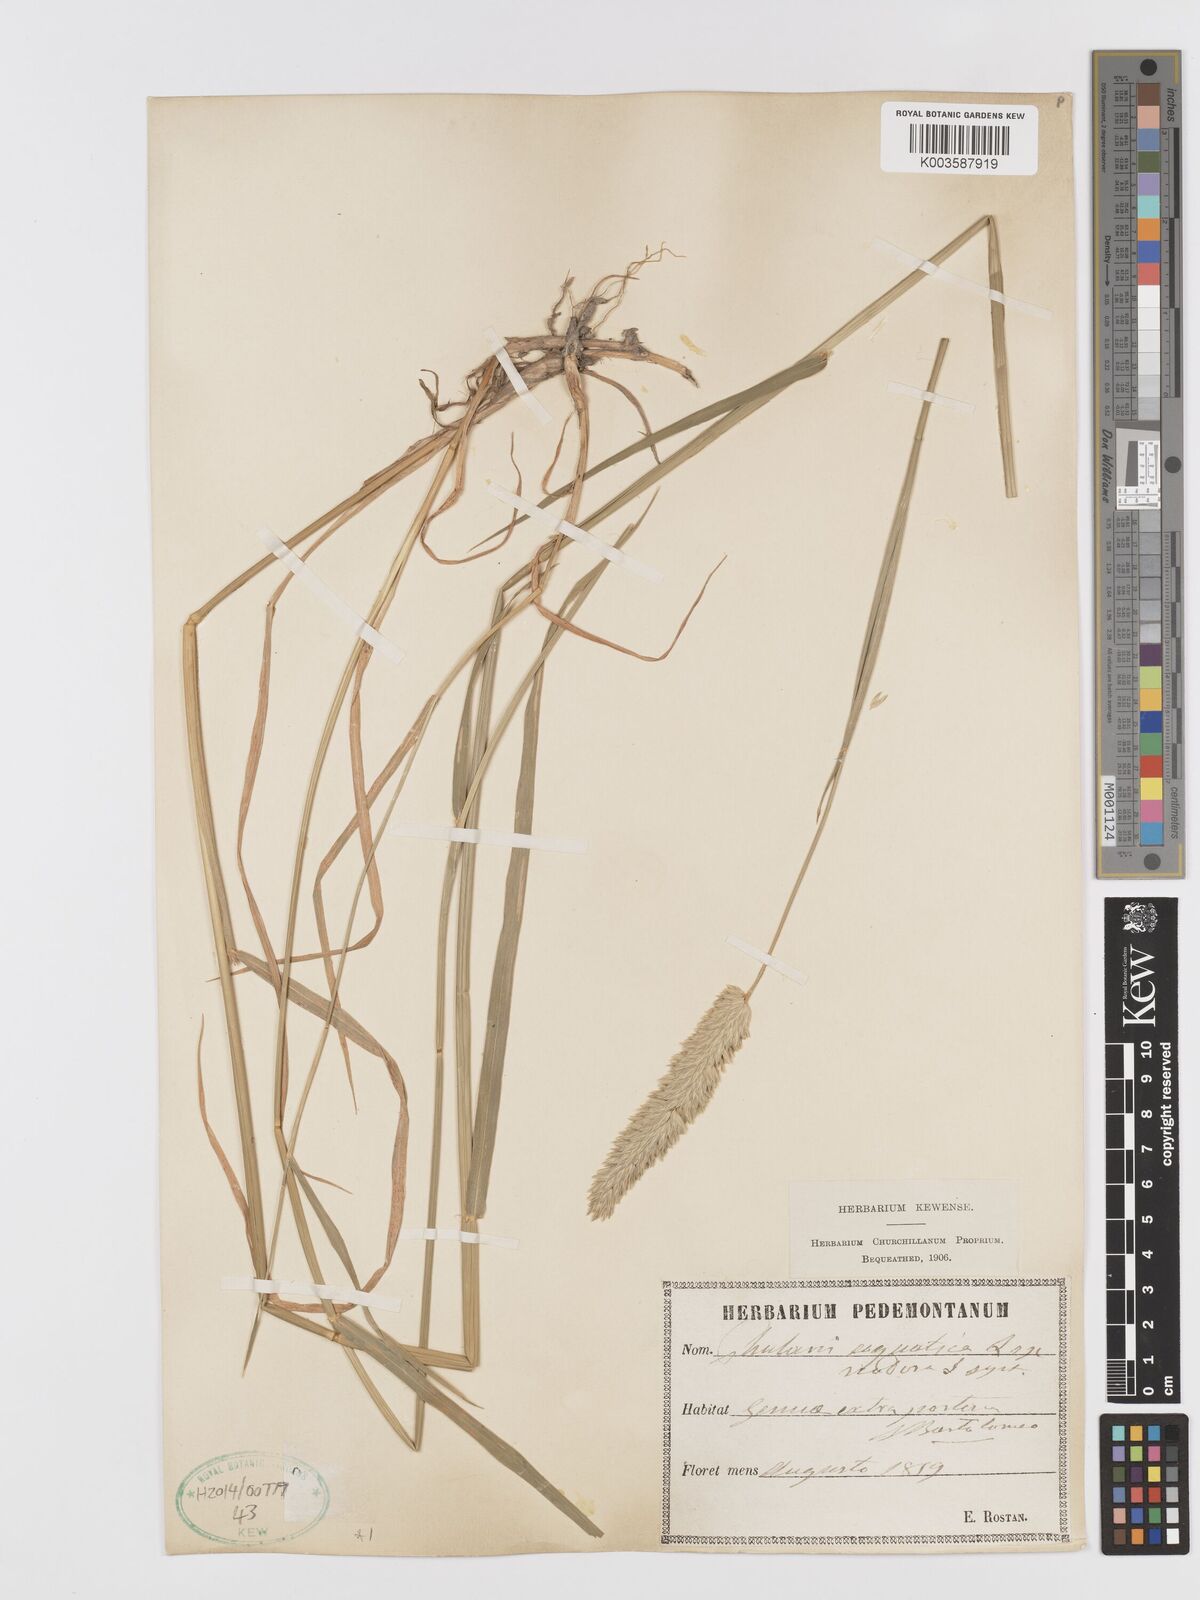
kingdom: Plantae
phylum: Tracheophyta
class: Liliopsida
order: Poales
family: Poaceae
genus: Phalaris
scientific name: Phalaris
